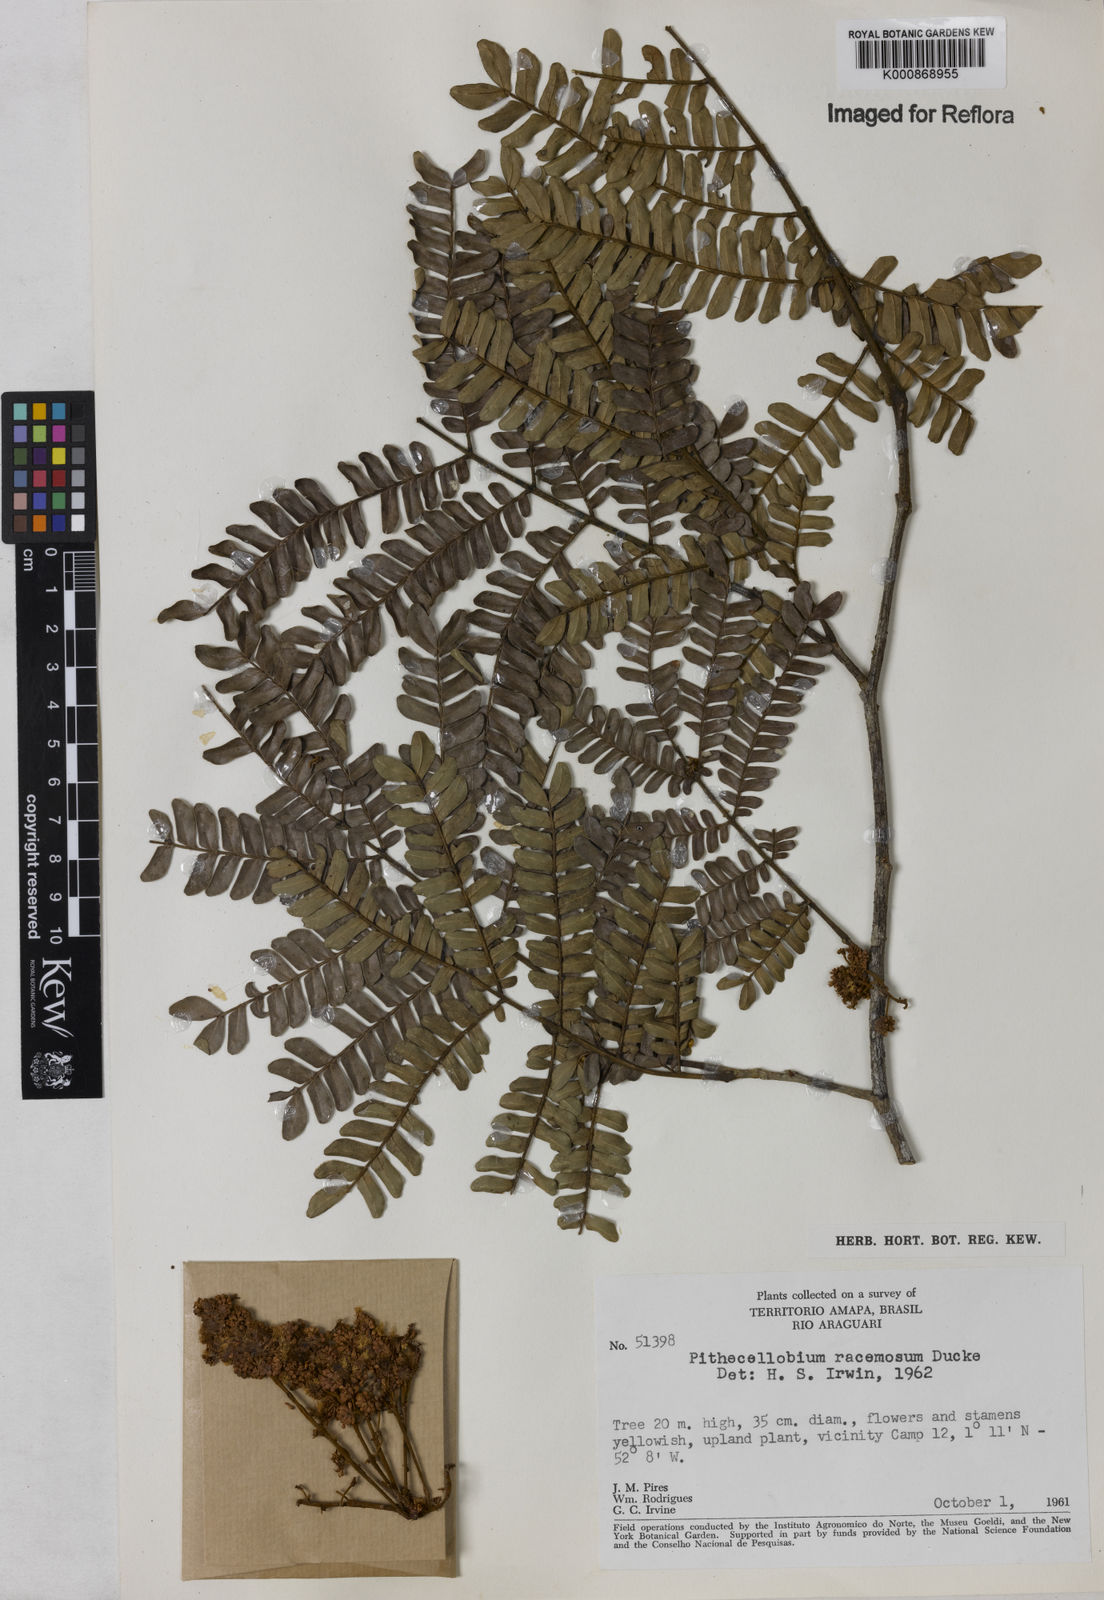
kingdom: Plantae
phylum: Tracheophyta
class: Magnoliopsida
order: Fabales
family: Fabaceae
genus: Marmaroxylon
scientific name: Marmaroxylon
